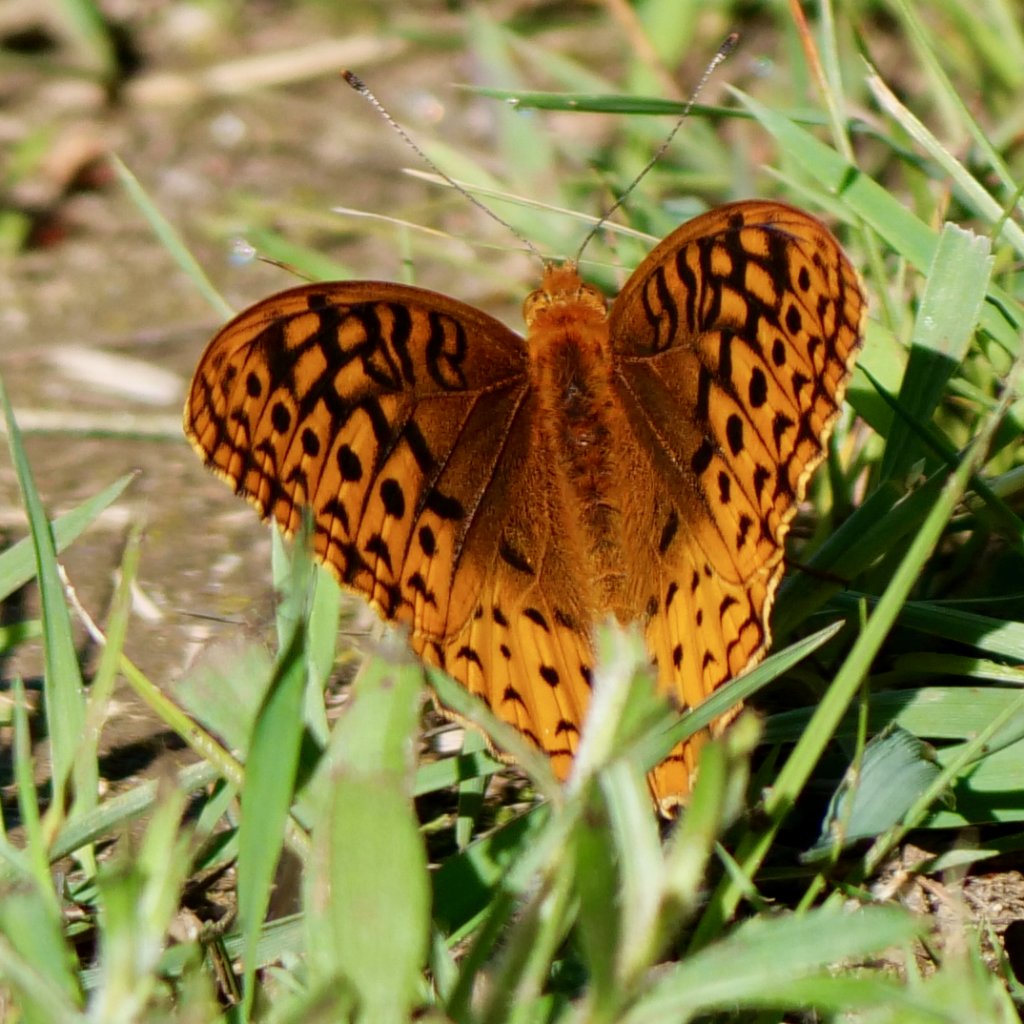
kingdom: Animalia
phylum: Arthropoda
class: Insecta
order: Lepidoptera
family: Nymphalidae
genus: Speyeria
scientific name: Speyeria cybele
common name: Great Spangled Fritillary
